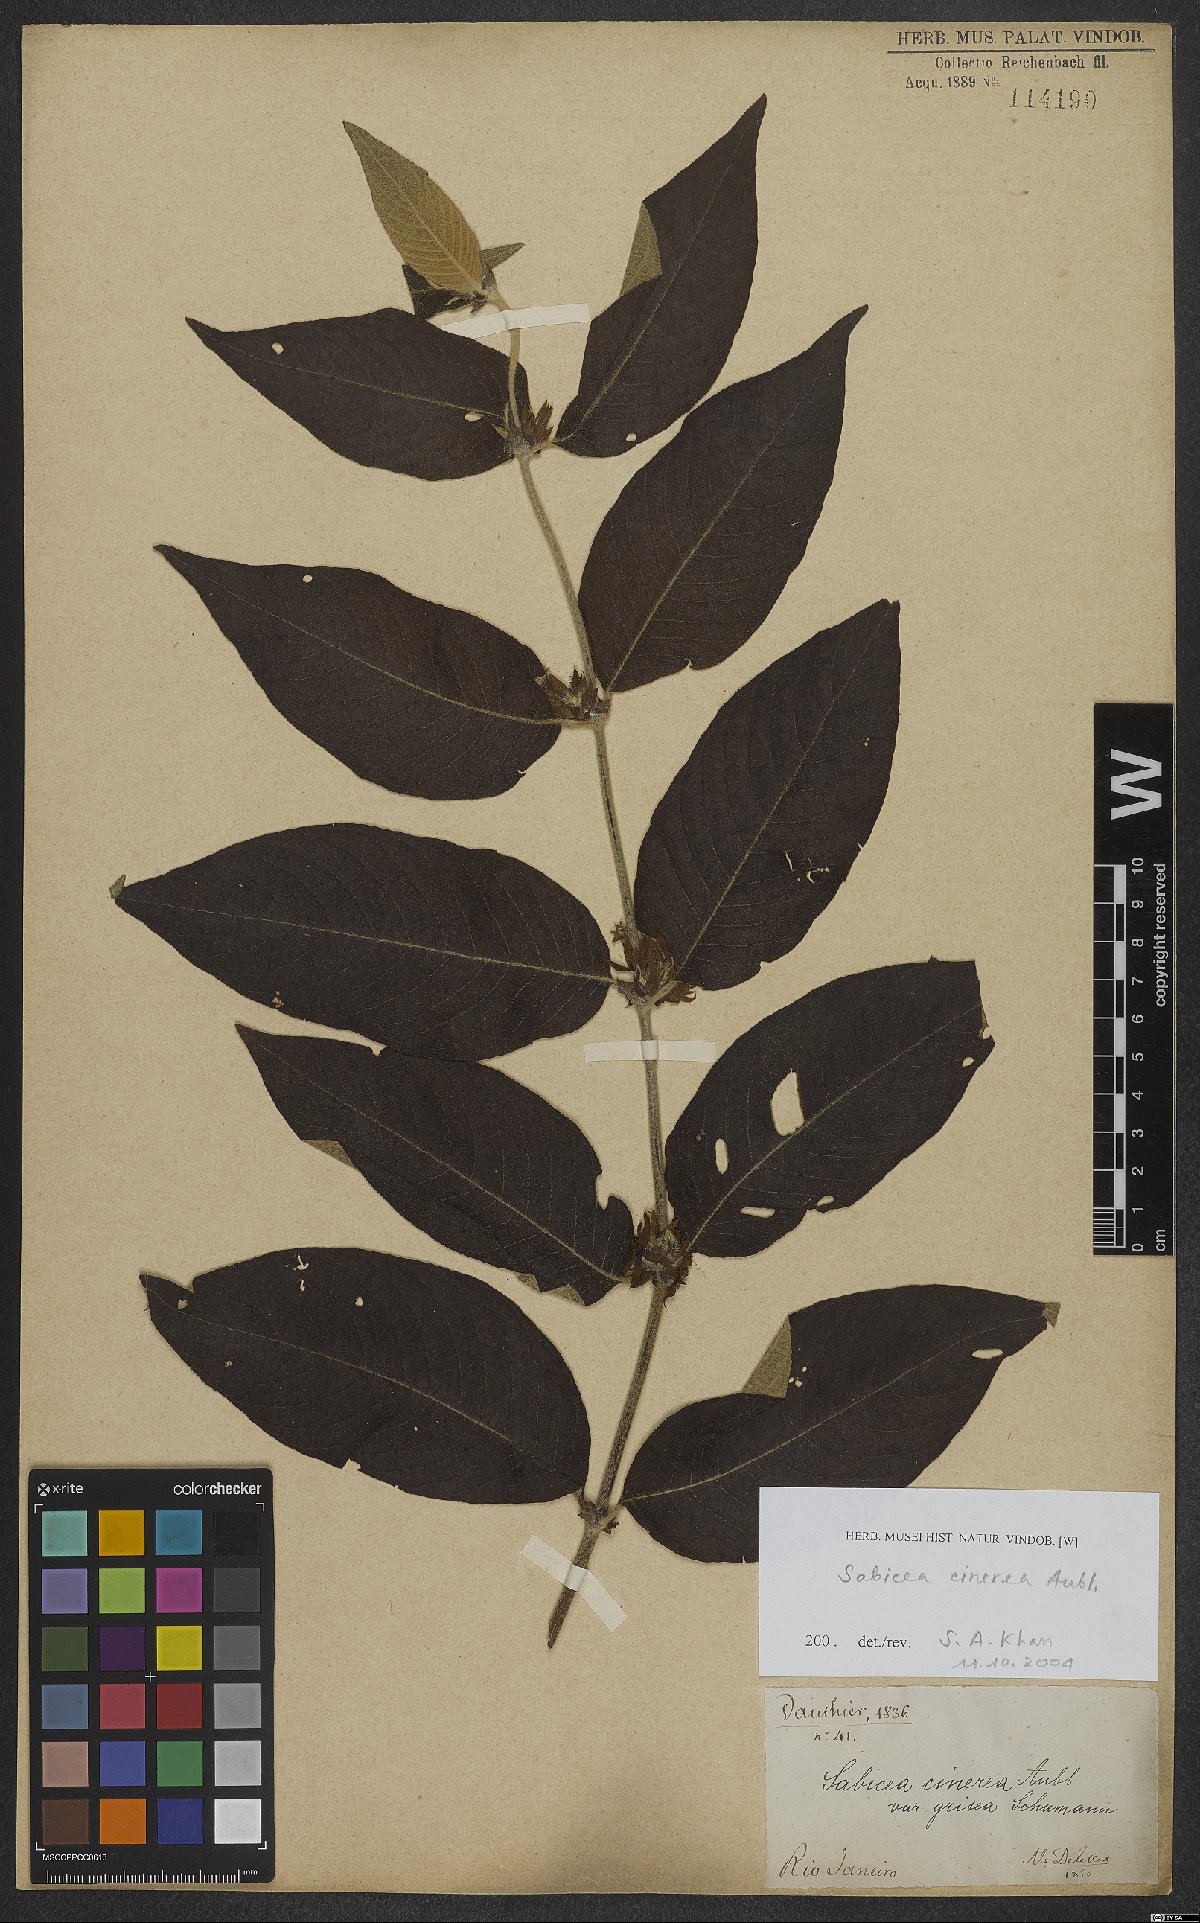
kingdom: Plantae
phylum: Tracheophyta
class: Magnoliopsida
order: Gentianales
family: Rubiaceae
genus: Sabicea
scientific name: Sabicea cinerea
